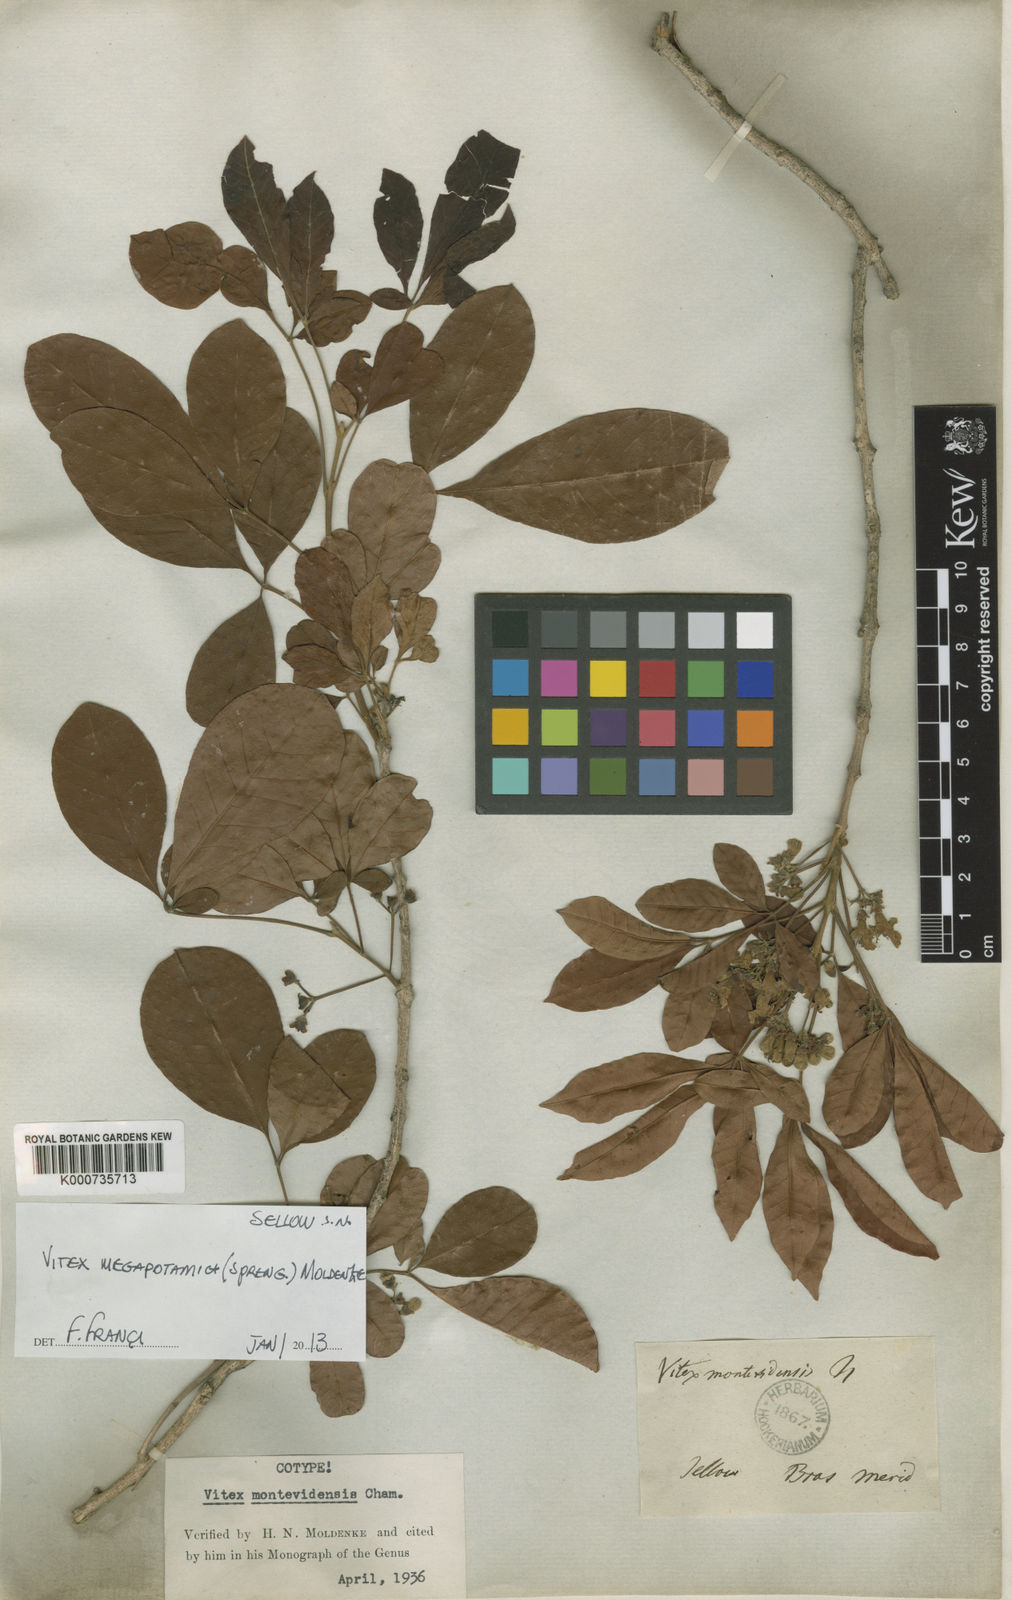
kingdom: Plantae
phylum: Tracheophyta
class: Magnoliopsida
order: Lamiales
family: Lamiaceae
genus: Vitex
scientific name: Vitex megapotamica
